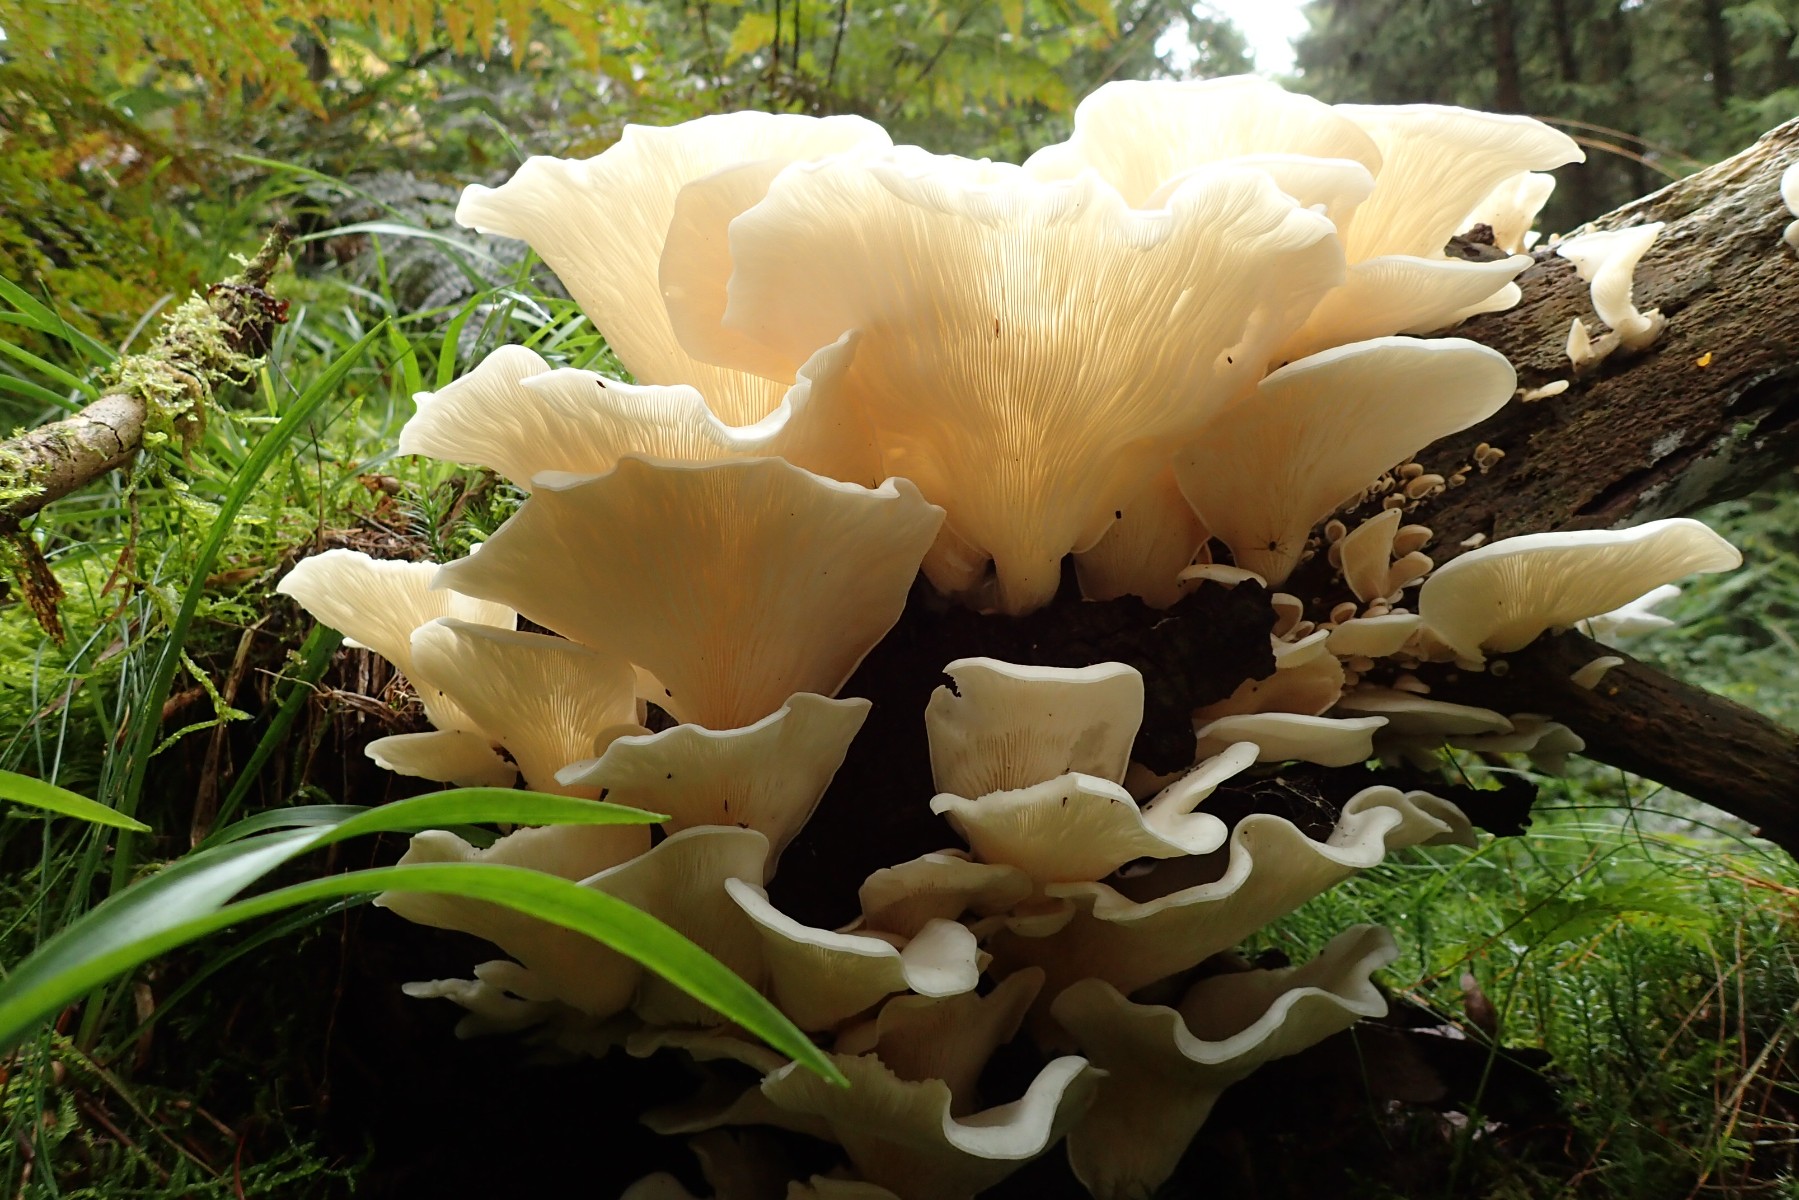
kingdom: Fungi
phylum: Basidiomycota
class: Agaricomycetes
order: Agaricales
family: Marasmiaceae
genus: Pleurocybella
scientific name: Pleurocybella porrigens
